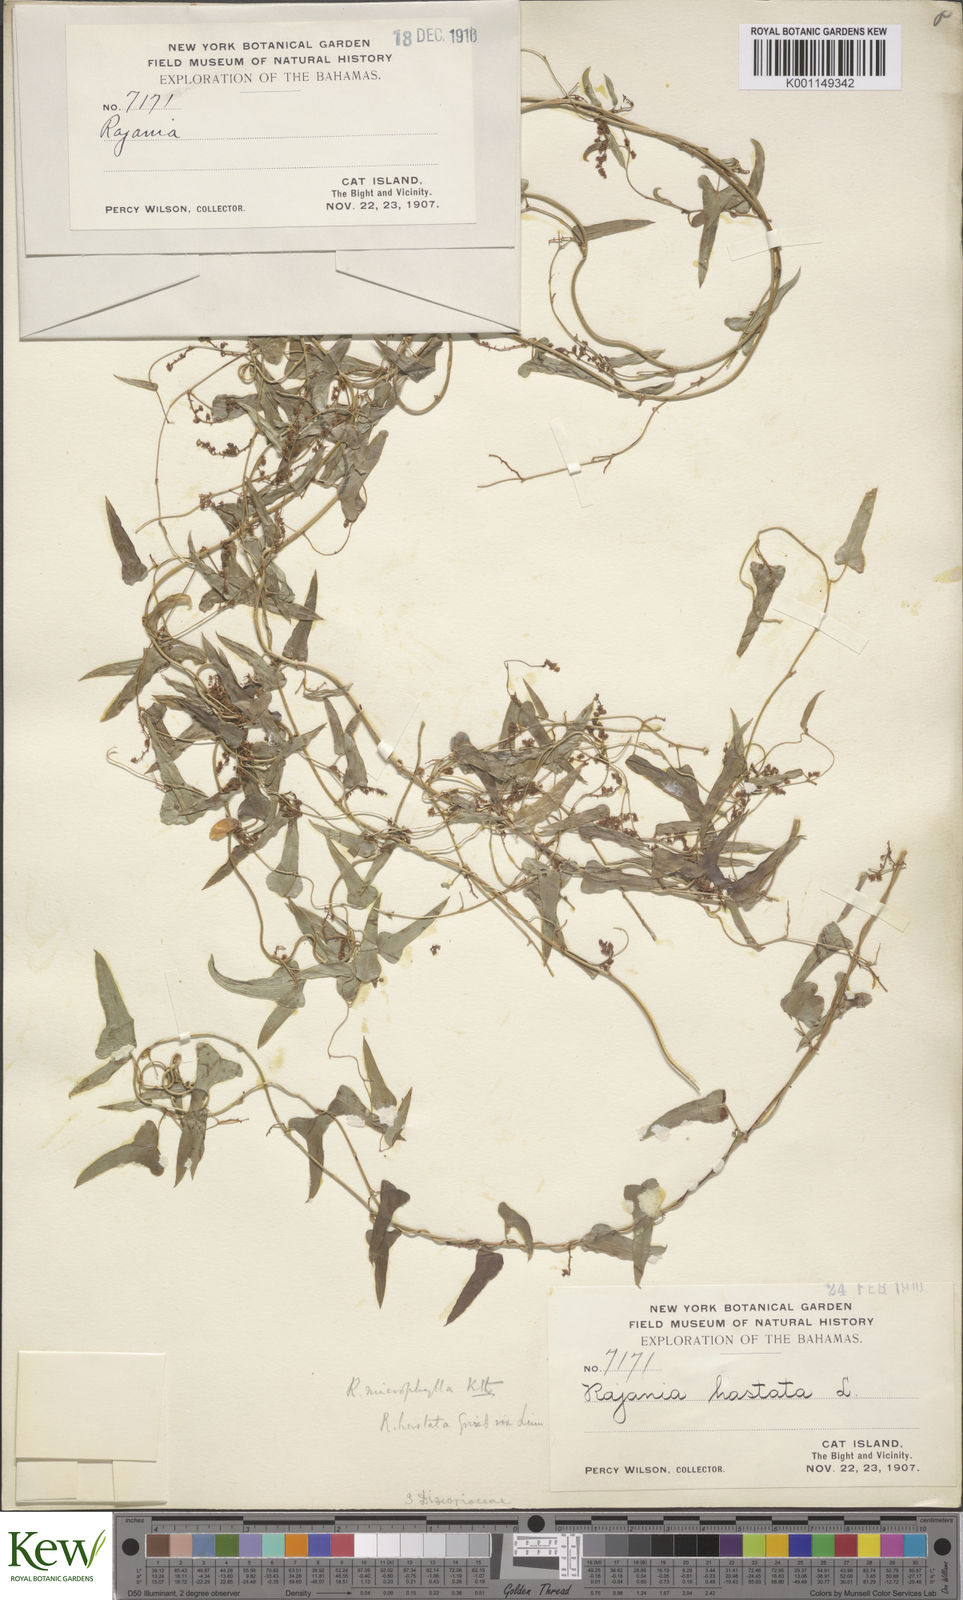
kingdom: Plantae
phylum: Tracheophyta
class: Liliopsida
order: Dioscoreales
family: Dioscoreaceae
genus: Dioscorea
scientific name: Dioscorea mexicana
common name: Mexican yam
